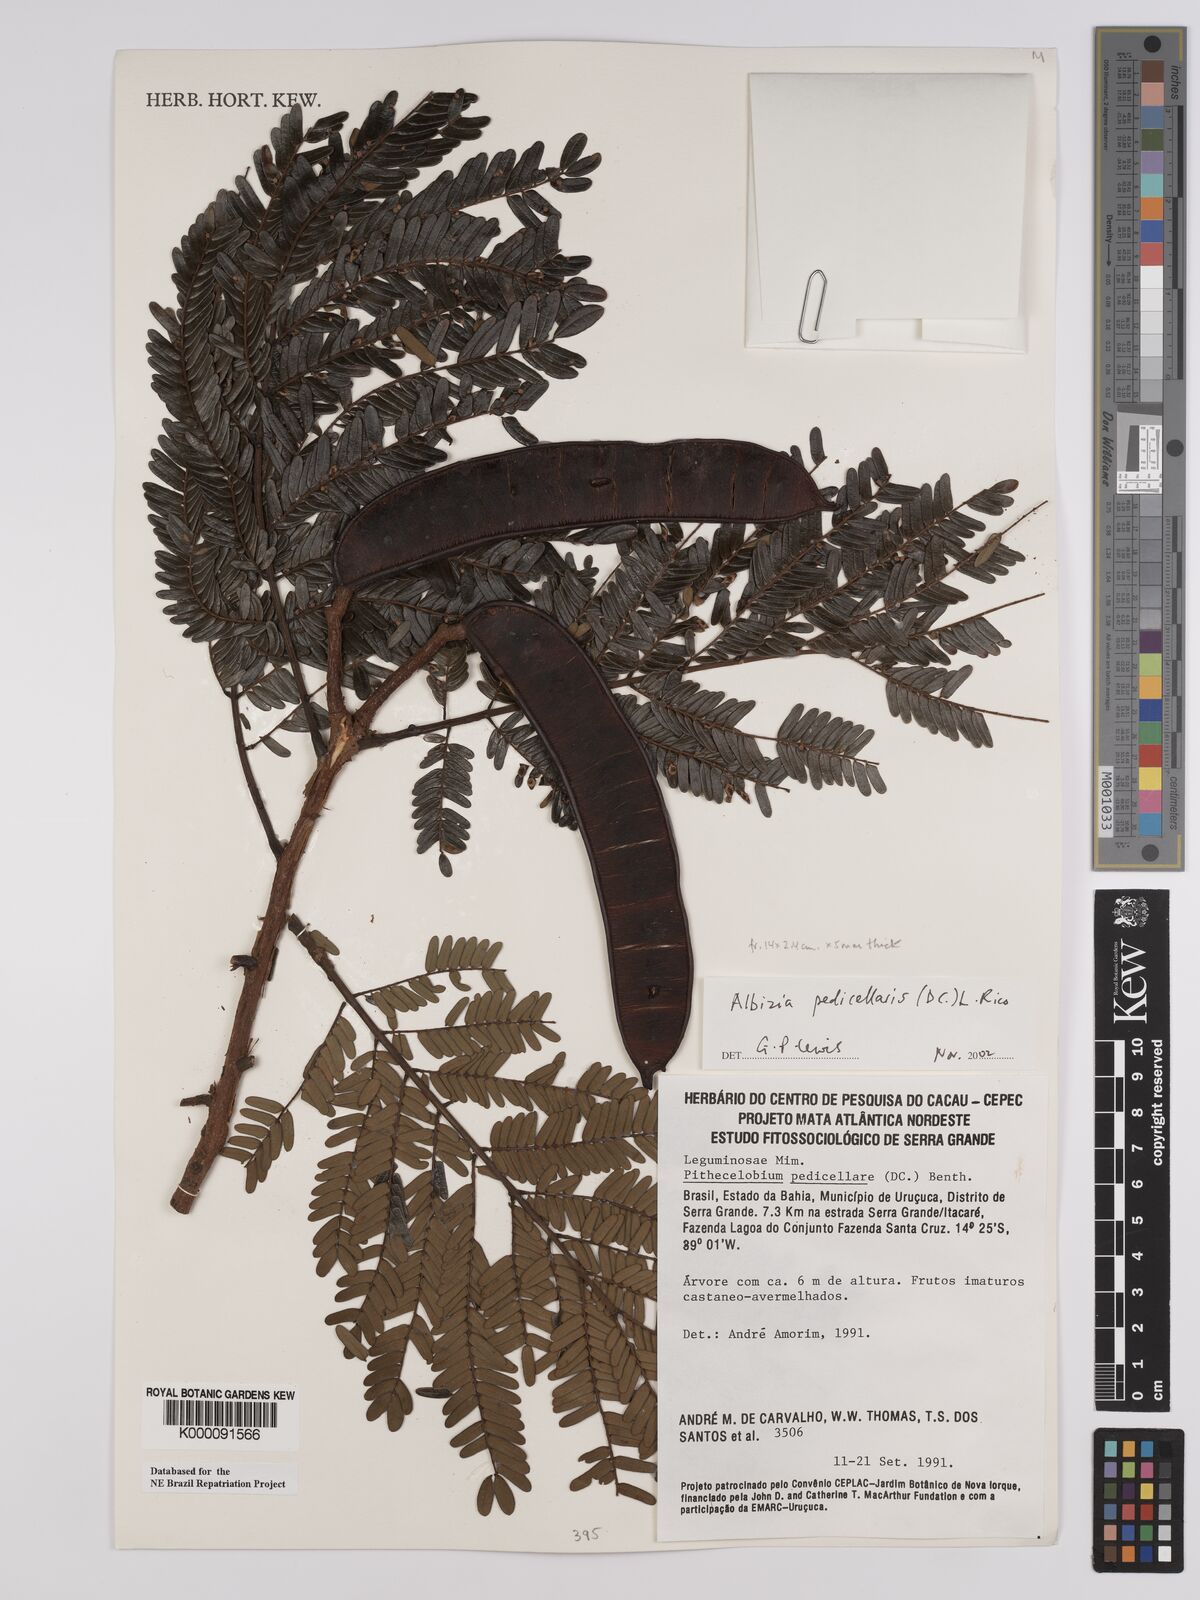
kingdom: Plantae
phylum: Tracheophyta
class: Magnoliopsida
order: Fabales
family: Fabaceae
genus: Balizia
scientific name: Balizia pedicellaris
